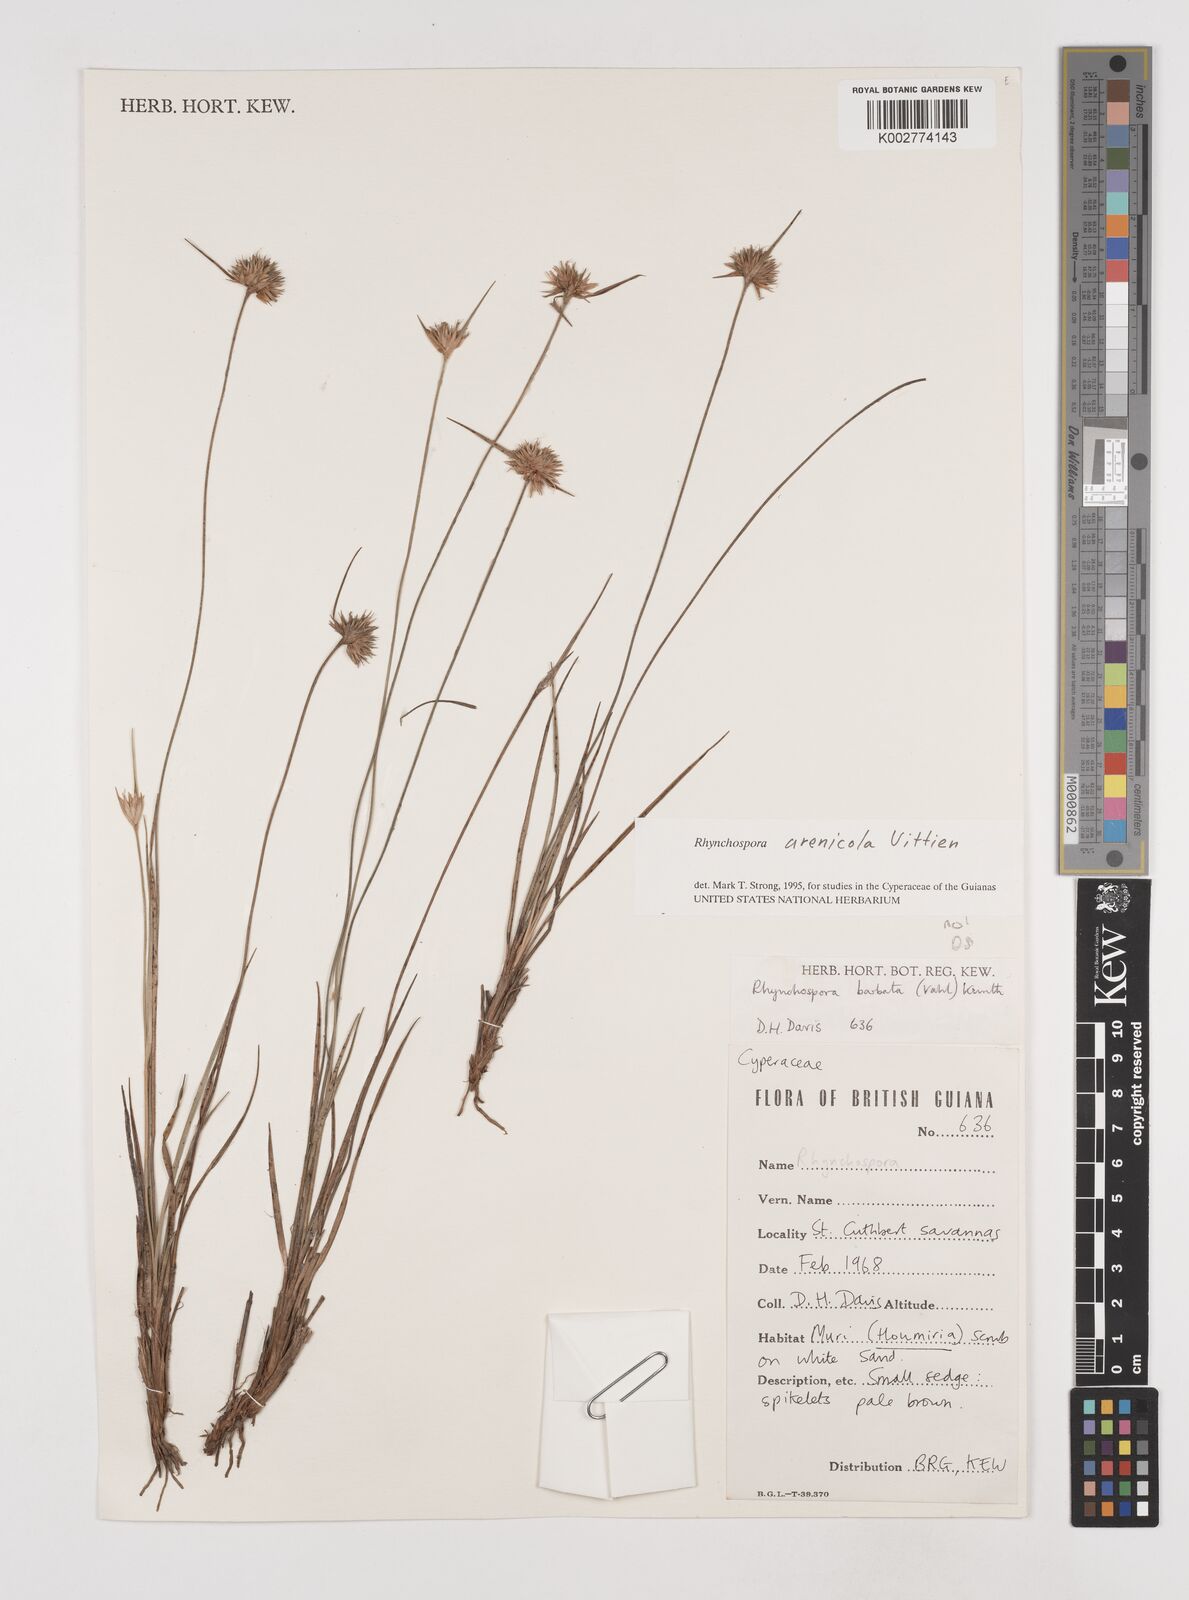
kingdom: Plantae
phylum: Tracheophyta
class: Liliopsida
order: Poales
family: Cyperaceae
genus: Rhynchospora
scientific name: Rhynchospora arenicola
